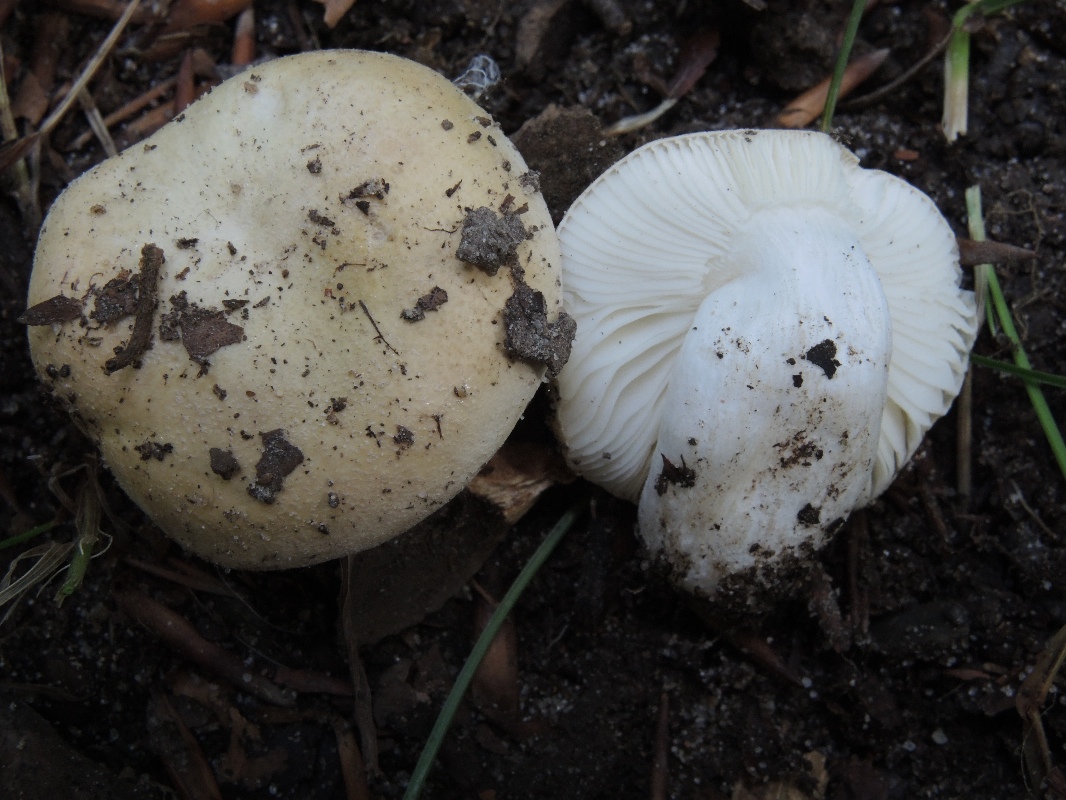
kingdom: Fungi
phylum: Basidiomycota
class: Agaricomycetes
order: Russulales
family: Russulaceae
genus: Russula
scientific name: Russula roseoaurantia
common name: kornet skørhat
